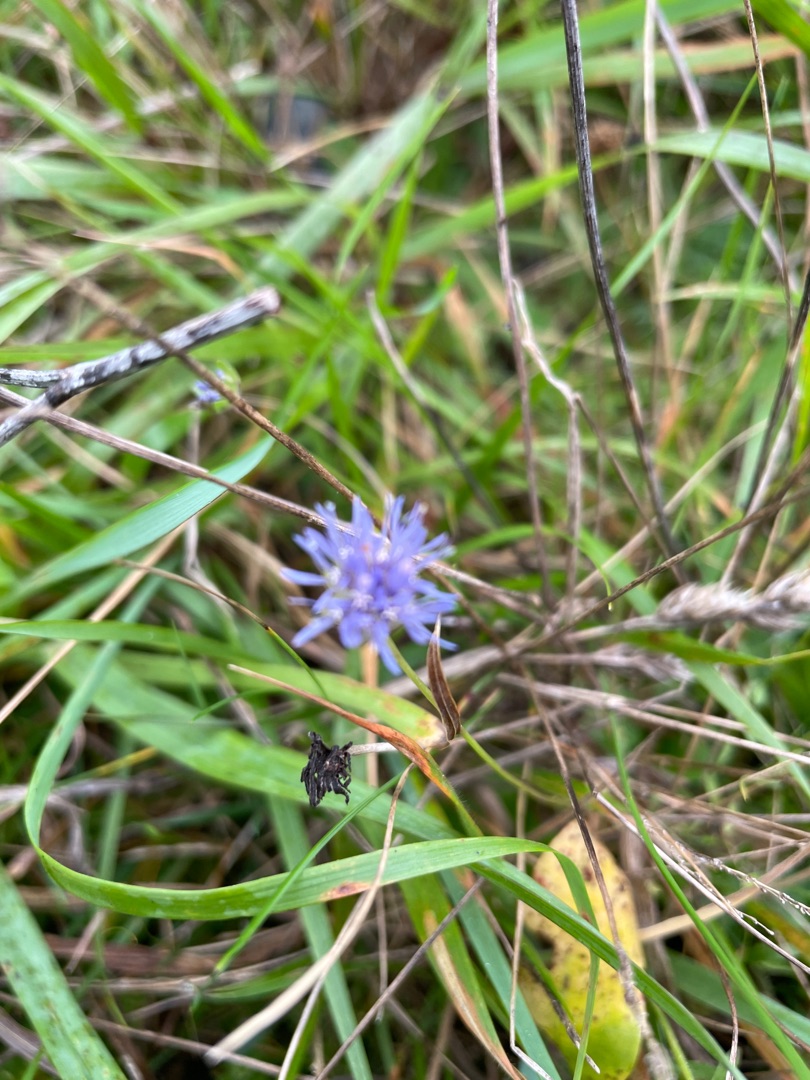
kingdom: Plantae
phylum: Tracheophyta
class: Magnoliopsida
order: Asterales
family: Campanulaceae
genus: Jasione
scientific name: Jasione montana
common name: Blåmunke
